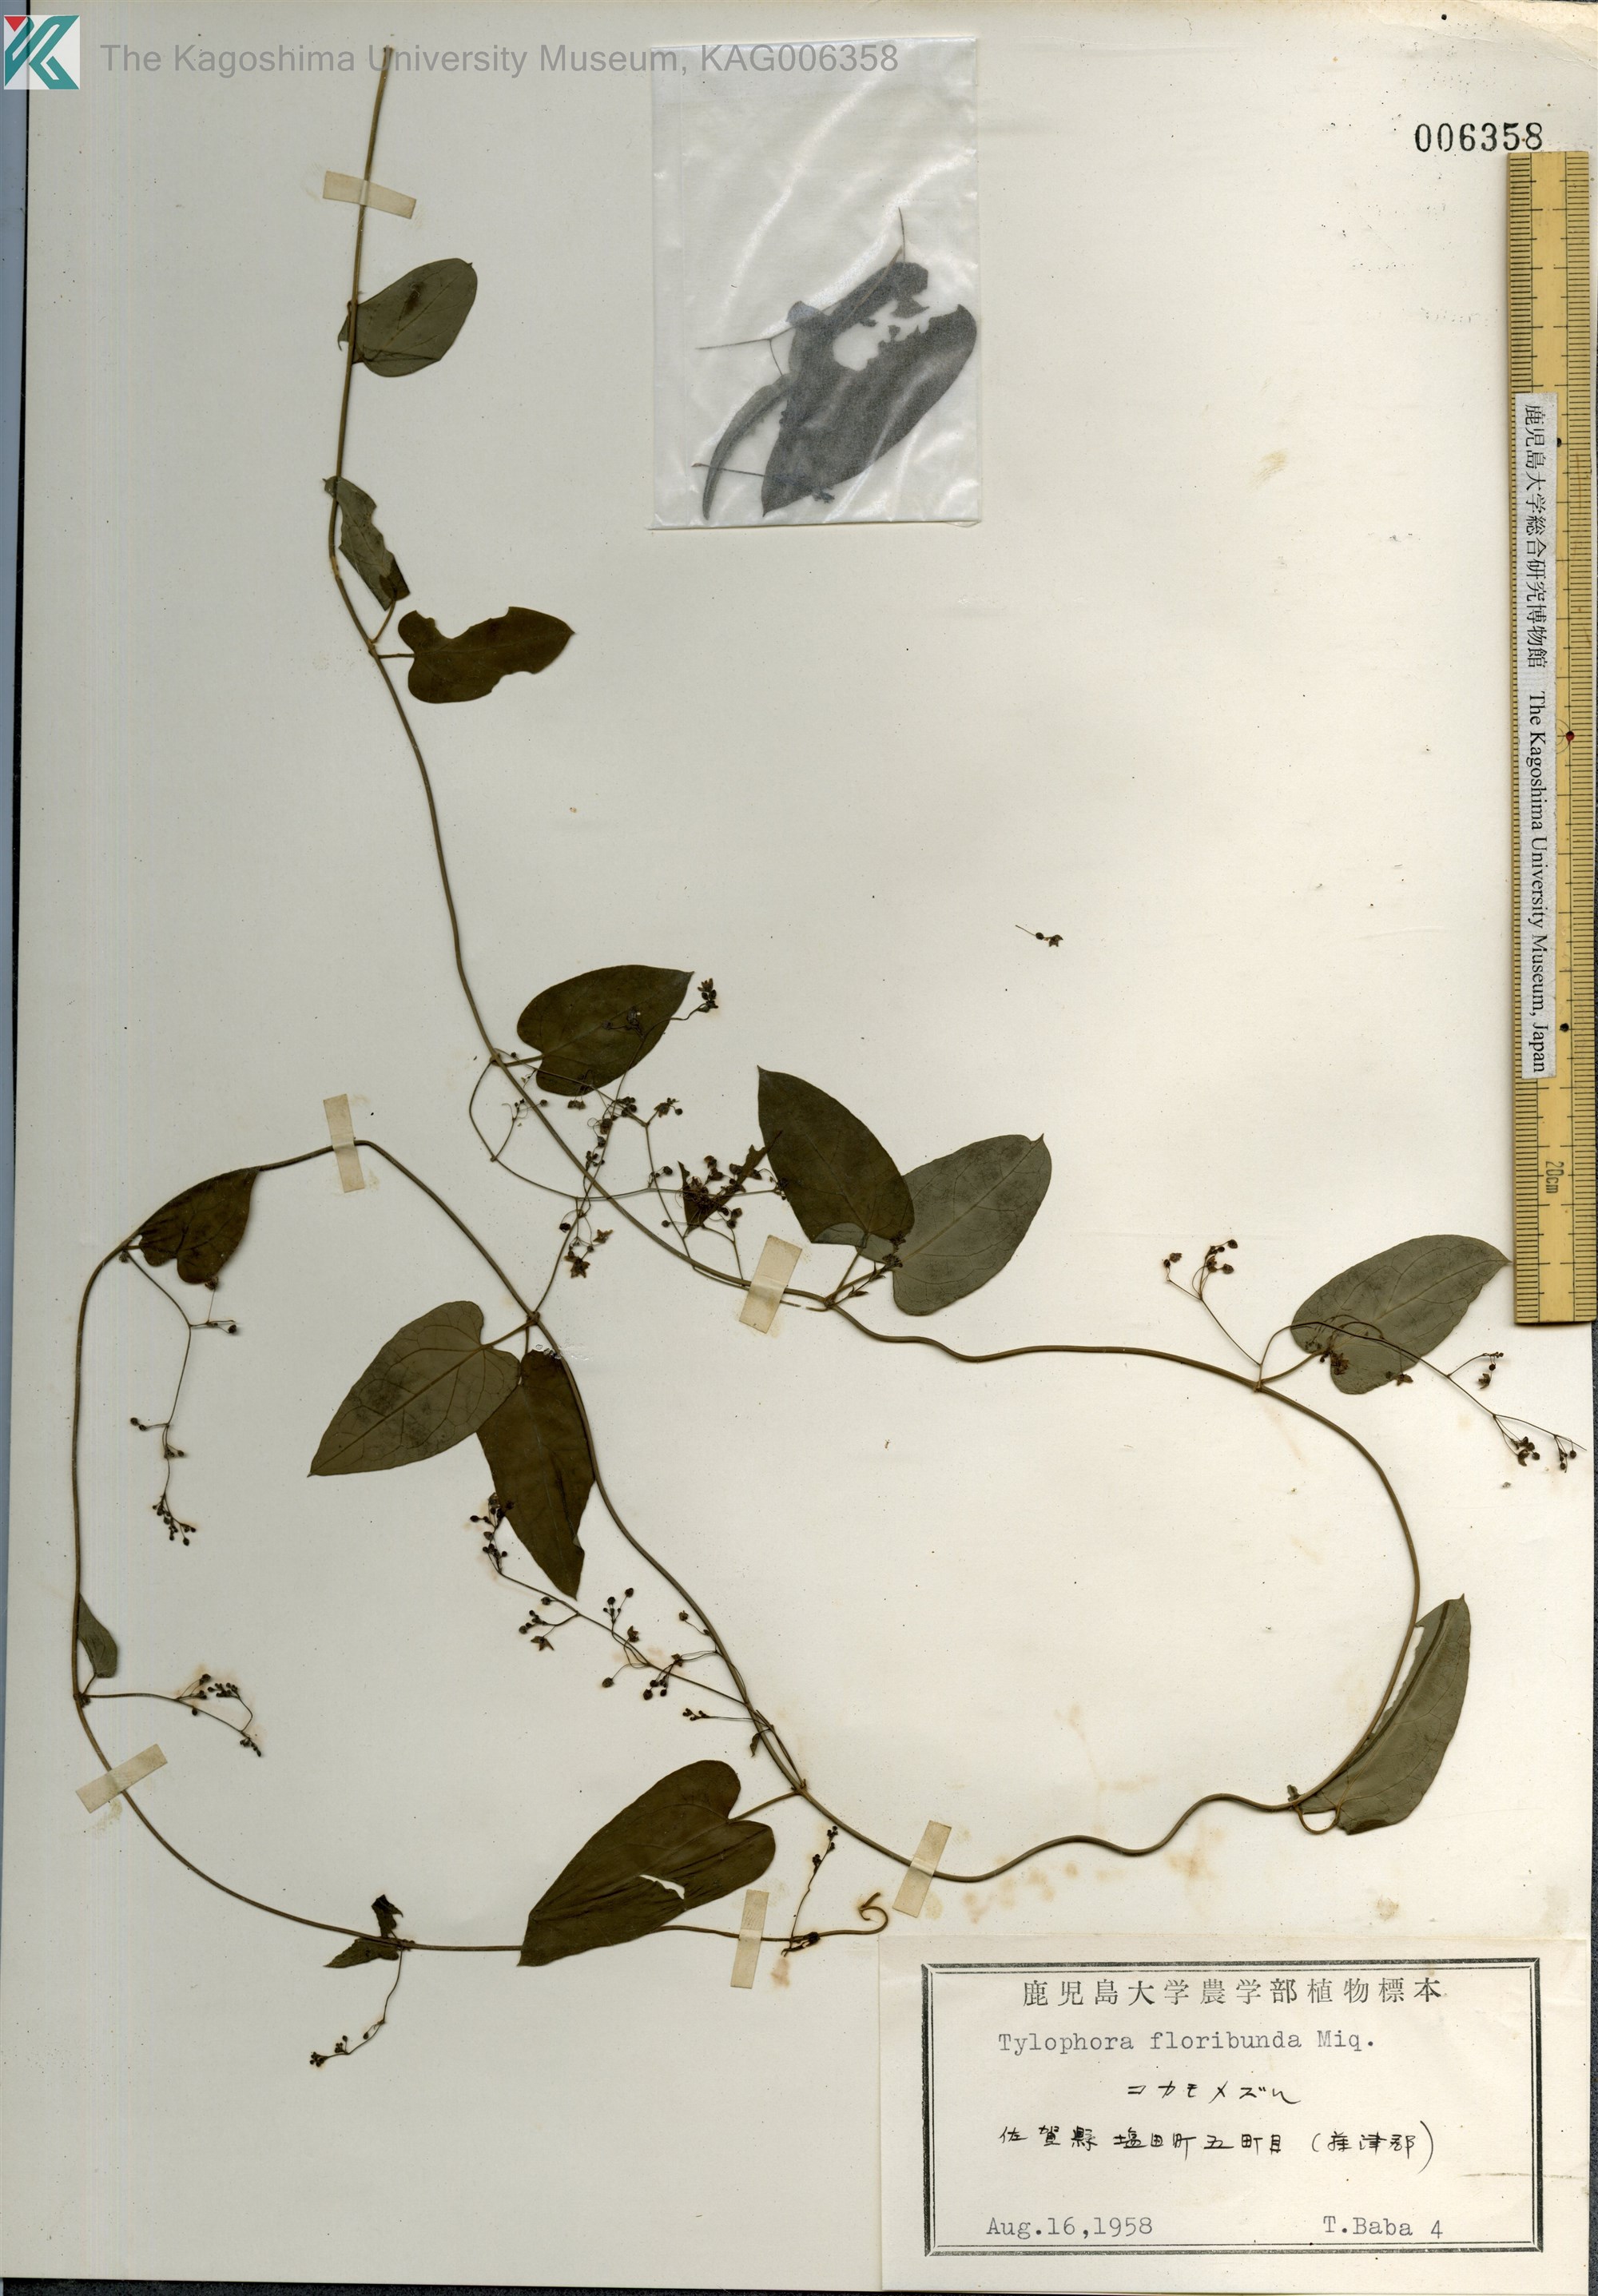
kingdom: Plantae
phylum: Tracheophyta
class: Magnoliopsida
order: Gentianales
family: Apocynaceae
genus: Vincetoxicum
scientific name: Vincetoxicum nikoense
